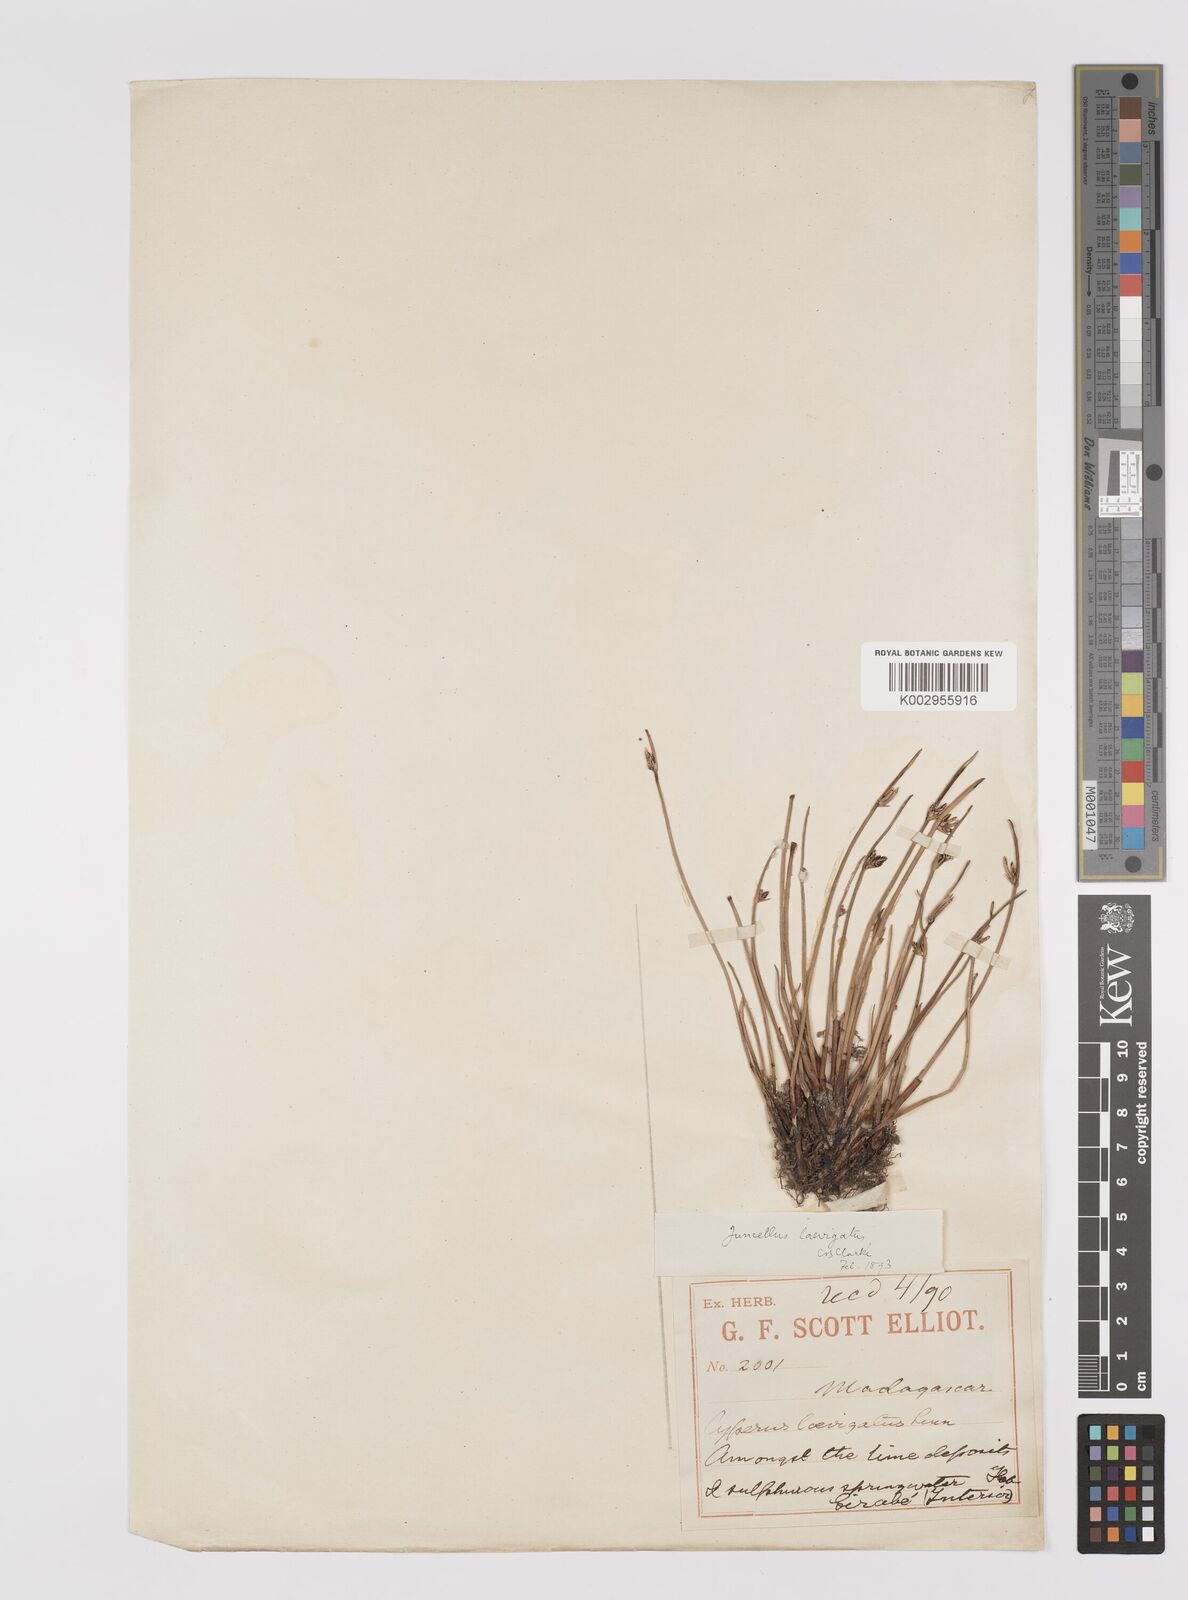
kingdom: Plantae
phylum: Tracheophyta
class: Liliopsida
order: Poales
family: Cyperaceae
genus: Cyperus
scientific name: Cyperus laevigatus
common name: Smooth flat sedge
